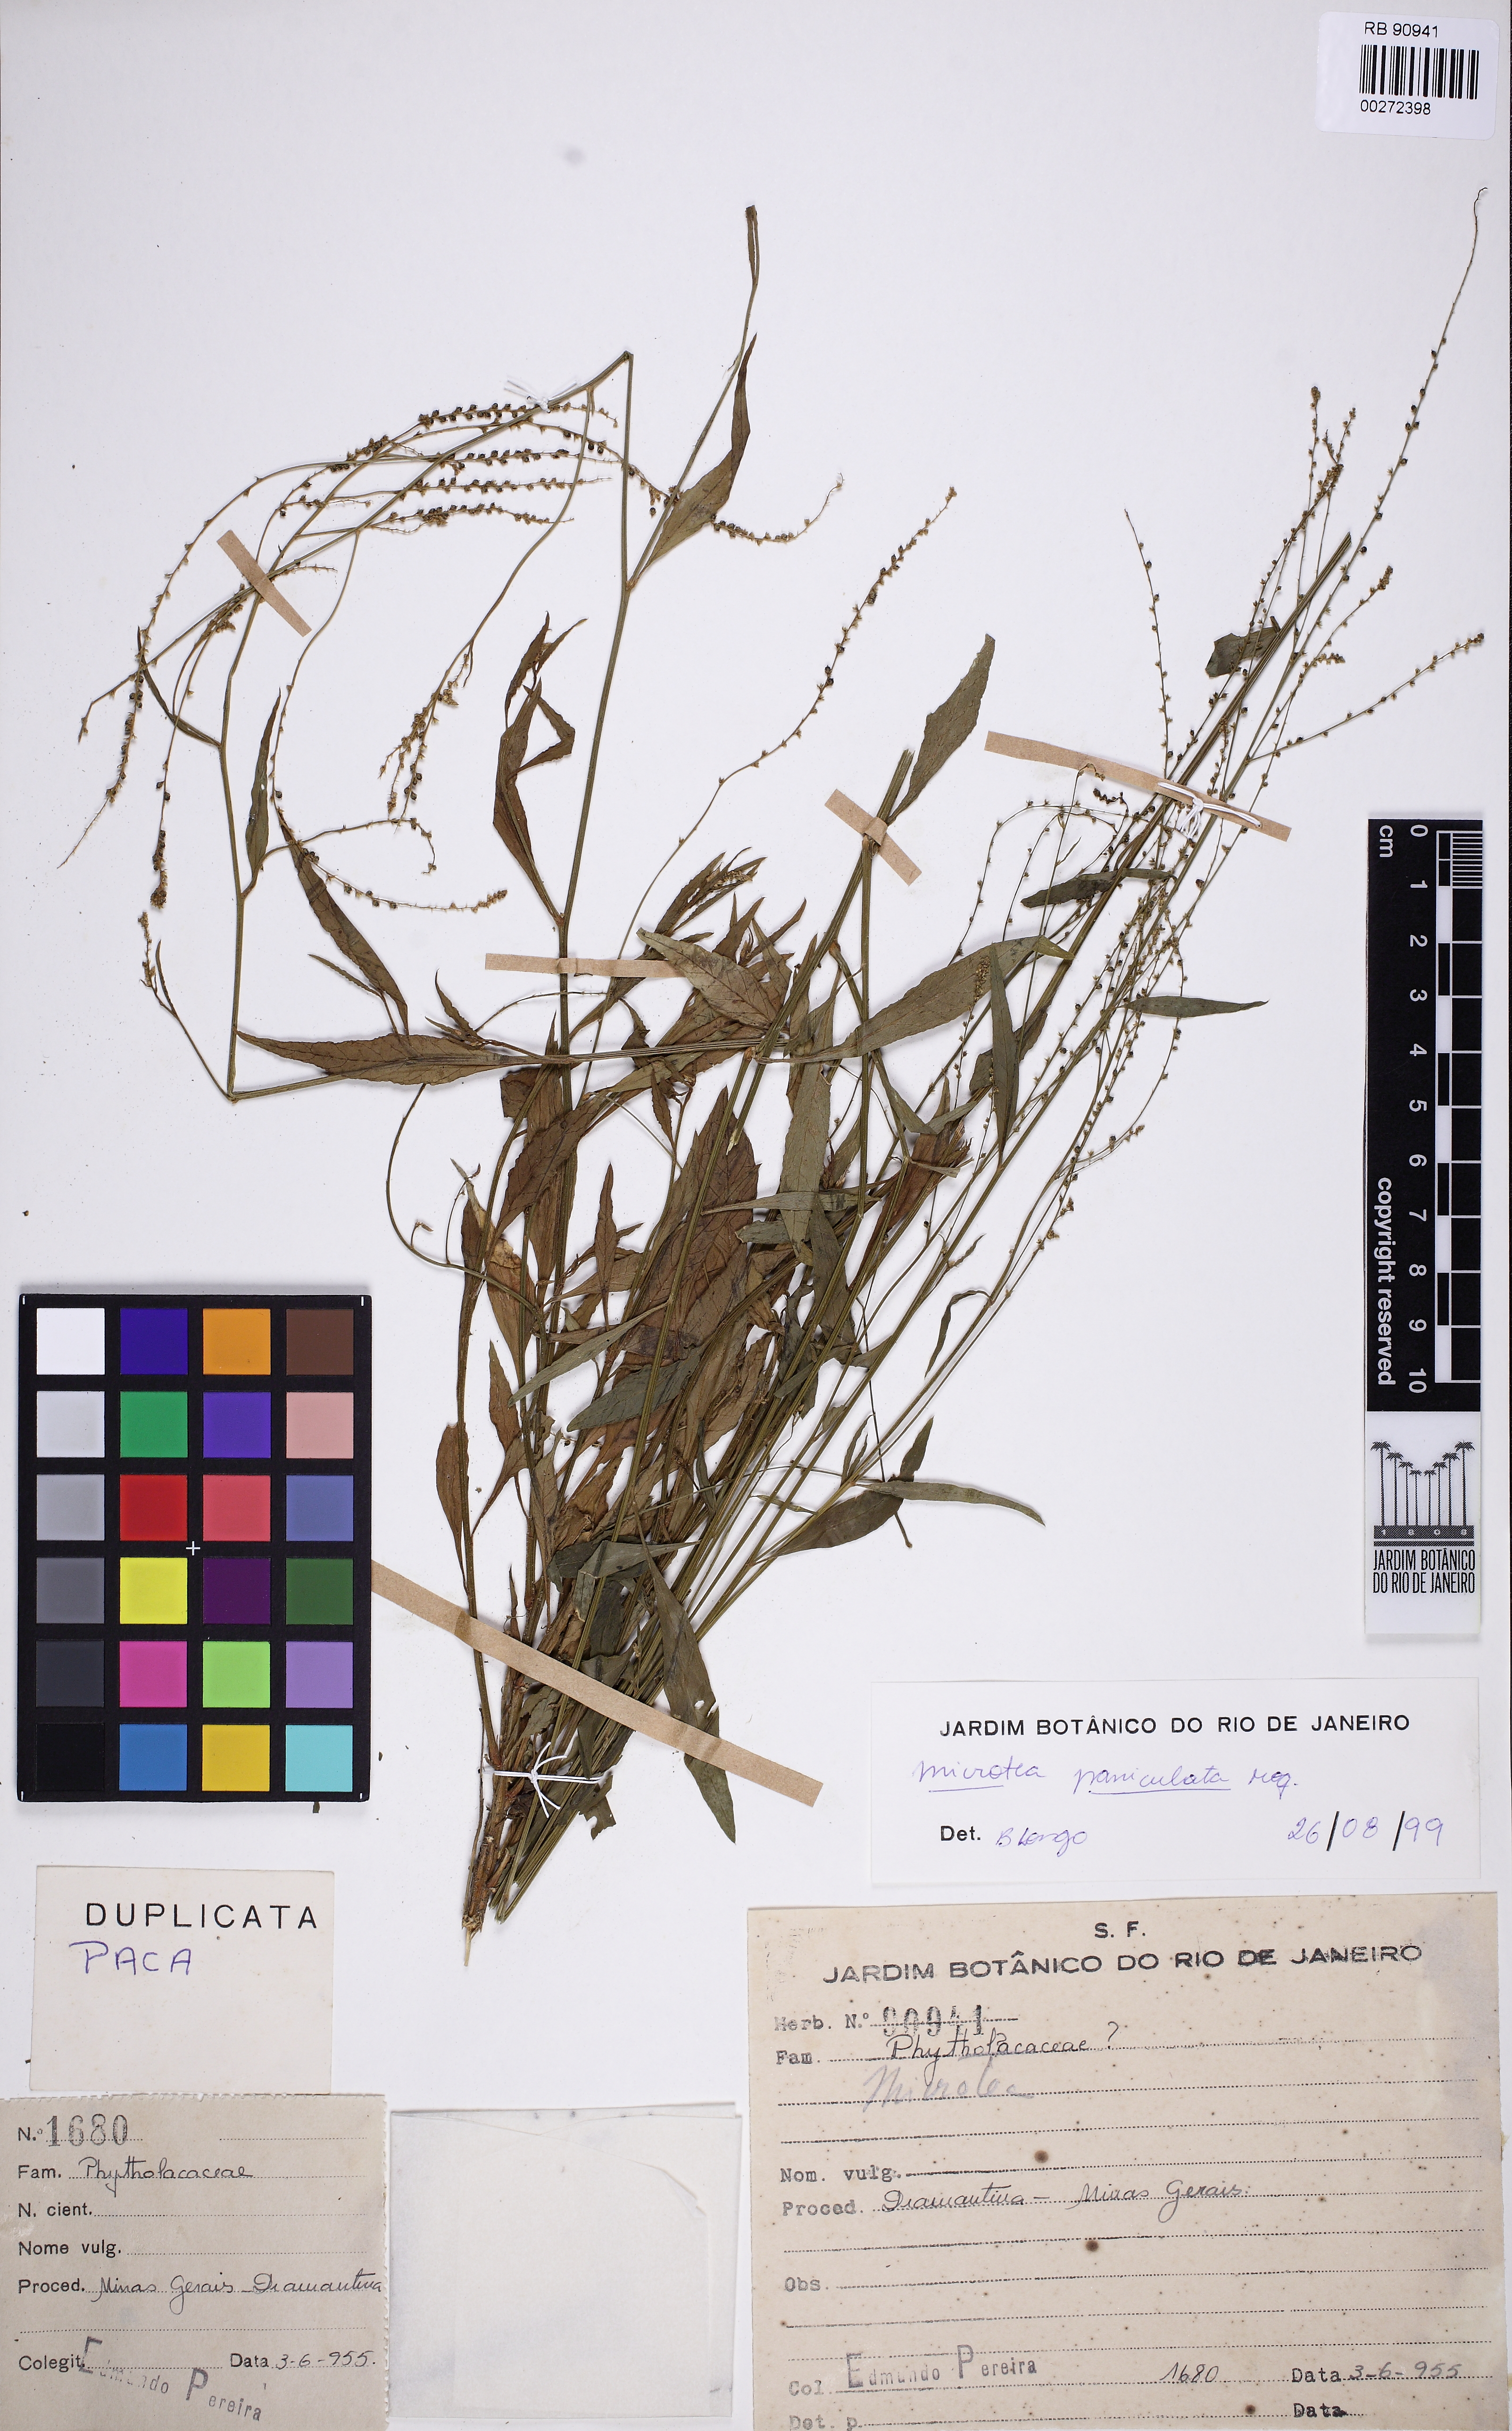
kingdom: Plantae
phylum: Tracheophyta
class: Magnoliopsida
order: Caryophyllales
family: Microteaceae
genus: Microtea
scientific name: Microtea paniculata
